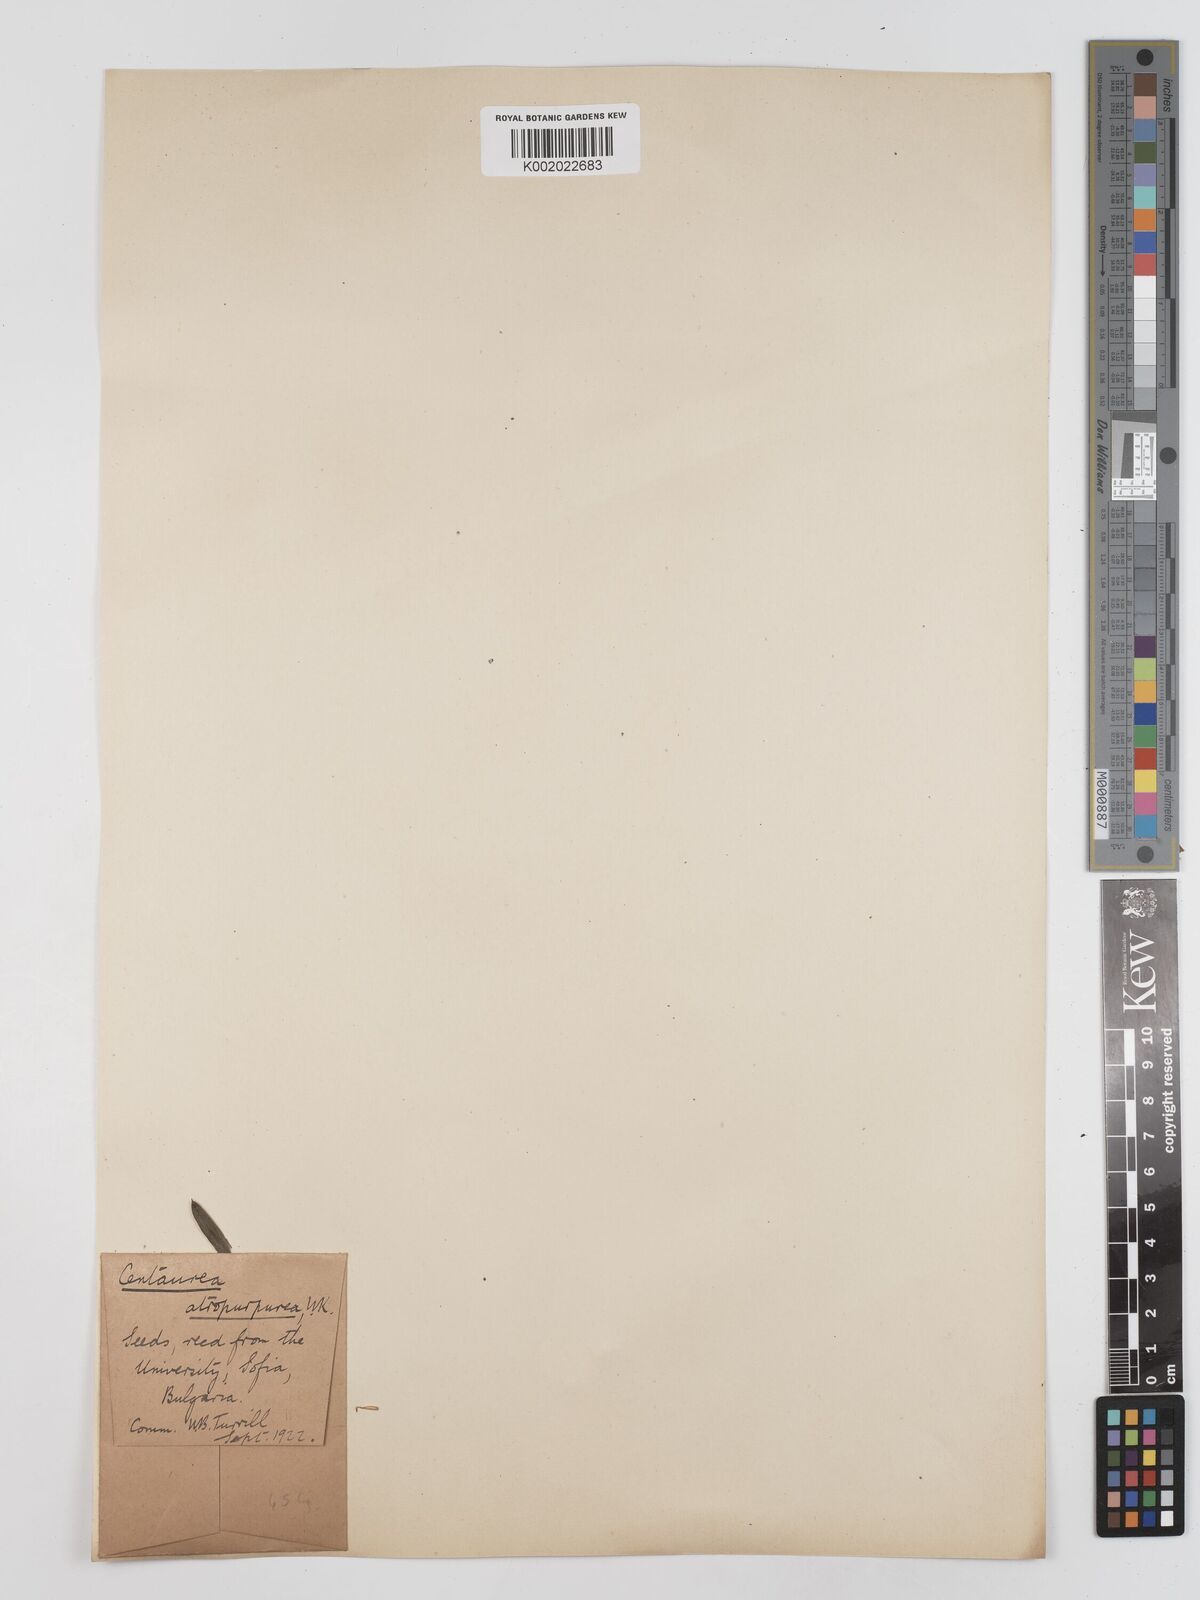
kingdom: Plantae
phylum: Tracheophyta
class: Magnoliopsida
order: Asterales
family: Asteraceae
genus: Centaurea
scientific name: Centaurea calocephala
